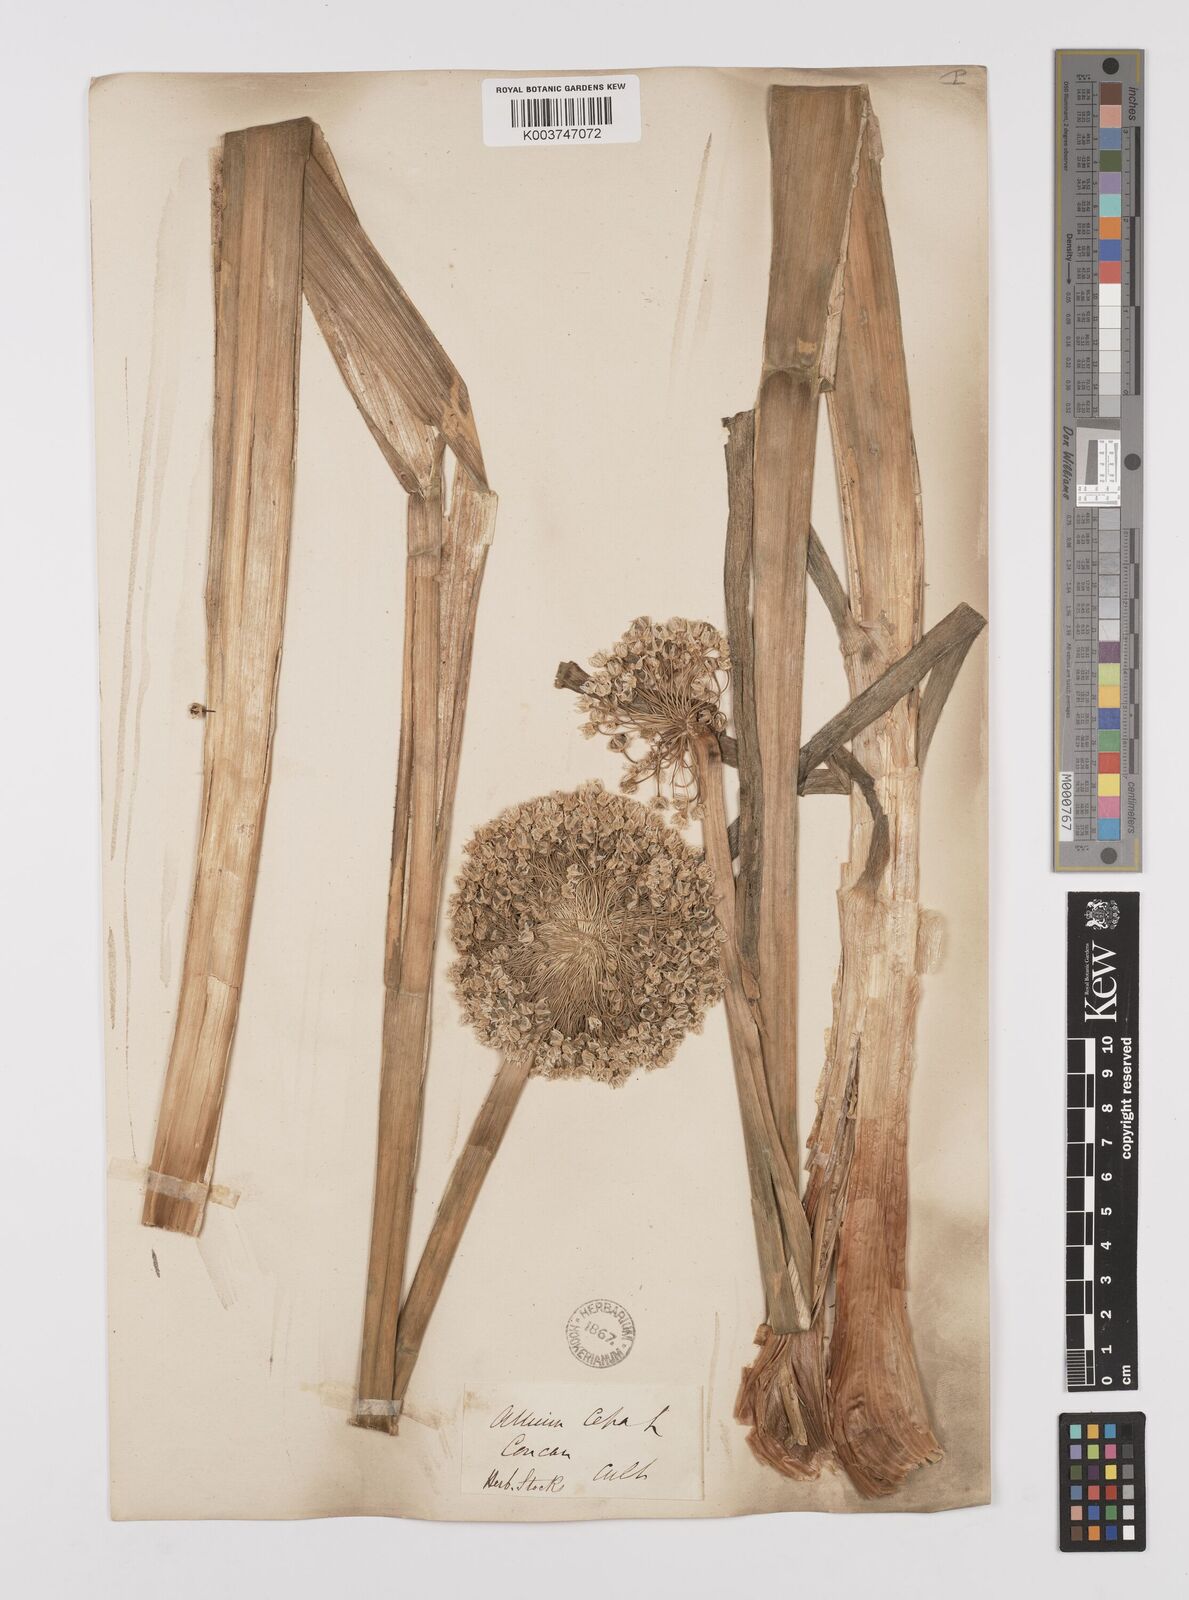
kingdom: Plantae
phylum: Tracheophyta
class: Liliopsida
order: Asparagales
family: Amaryllidaceae
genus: Allium
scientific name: Allium cepa
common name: Onion
